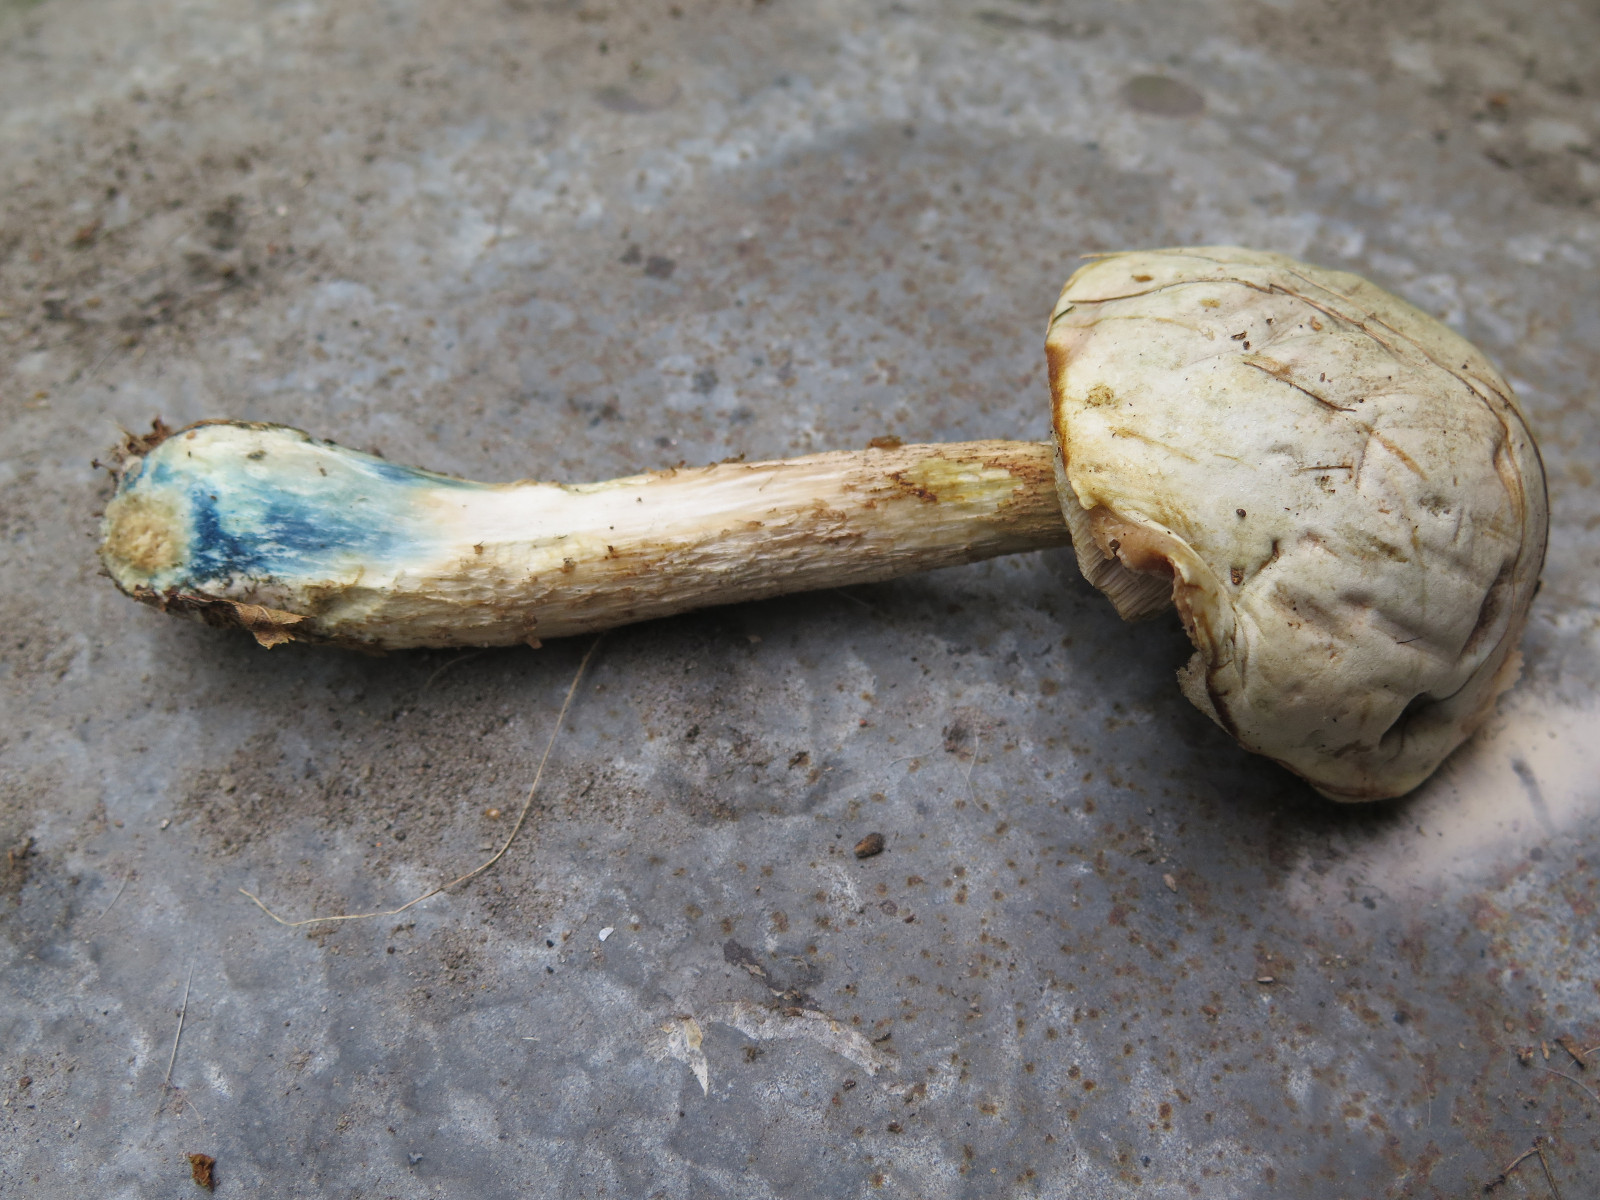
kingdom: Fungi
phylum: Basidiomycota
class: Agaricomycetes
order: Boletales
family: Boletaceae
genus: Leccinum
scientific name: Leccinum scabrum
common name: hvid skælrørhat
